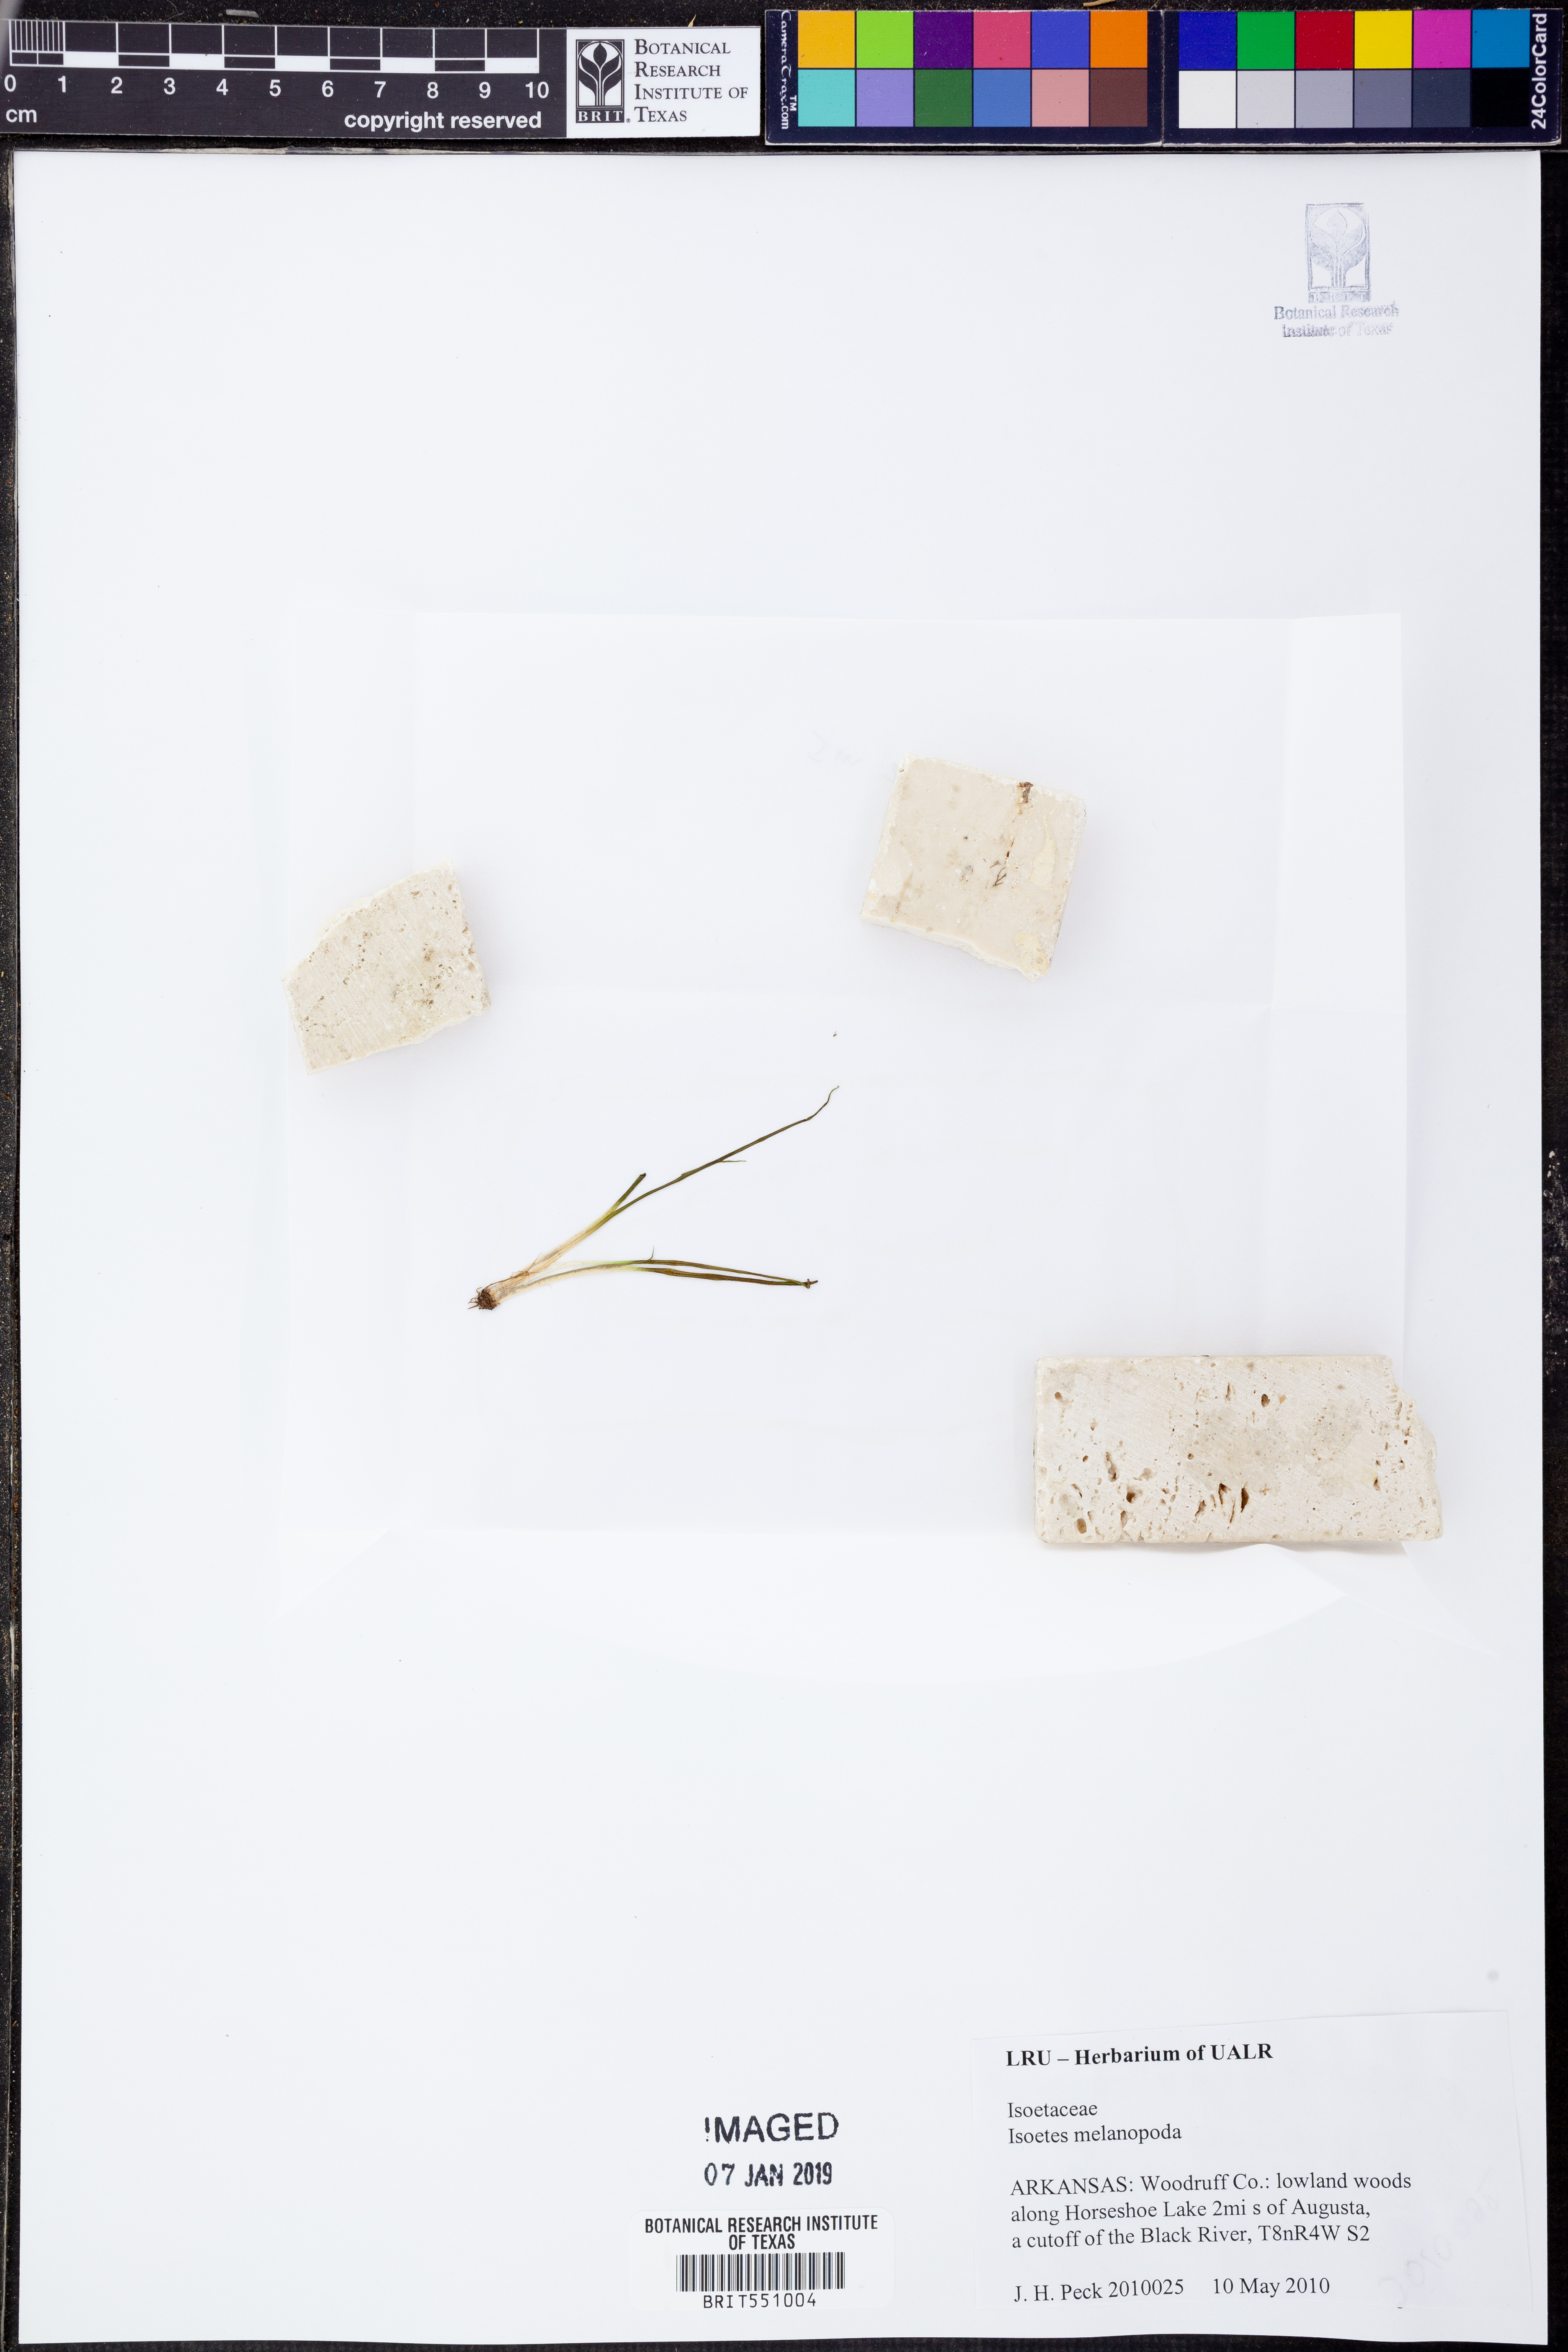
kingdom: Plantae
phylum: Tracheophyta
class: Lycopodiopsida
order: Isoetales
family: Isoetaceae
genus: Isoetes
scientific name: Isoetes melanopoda
